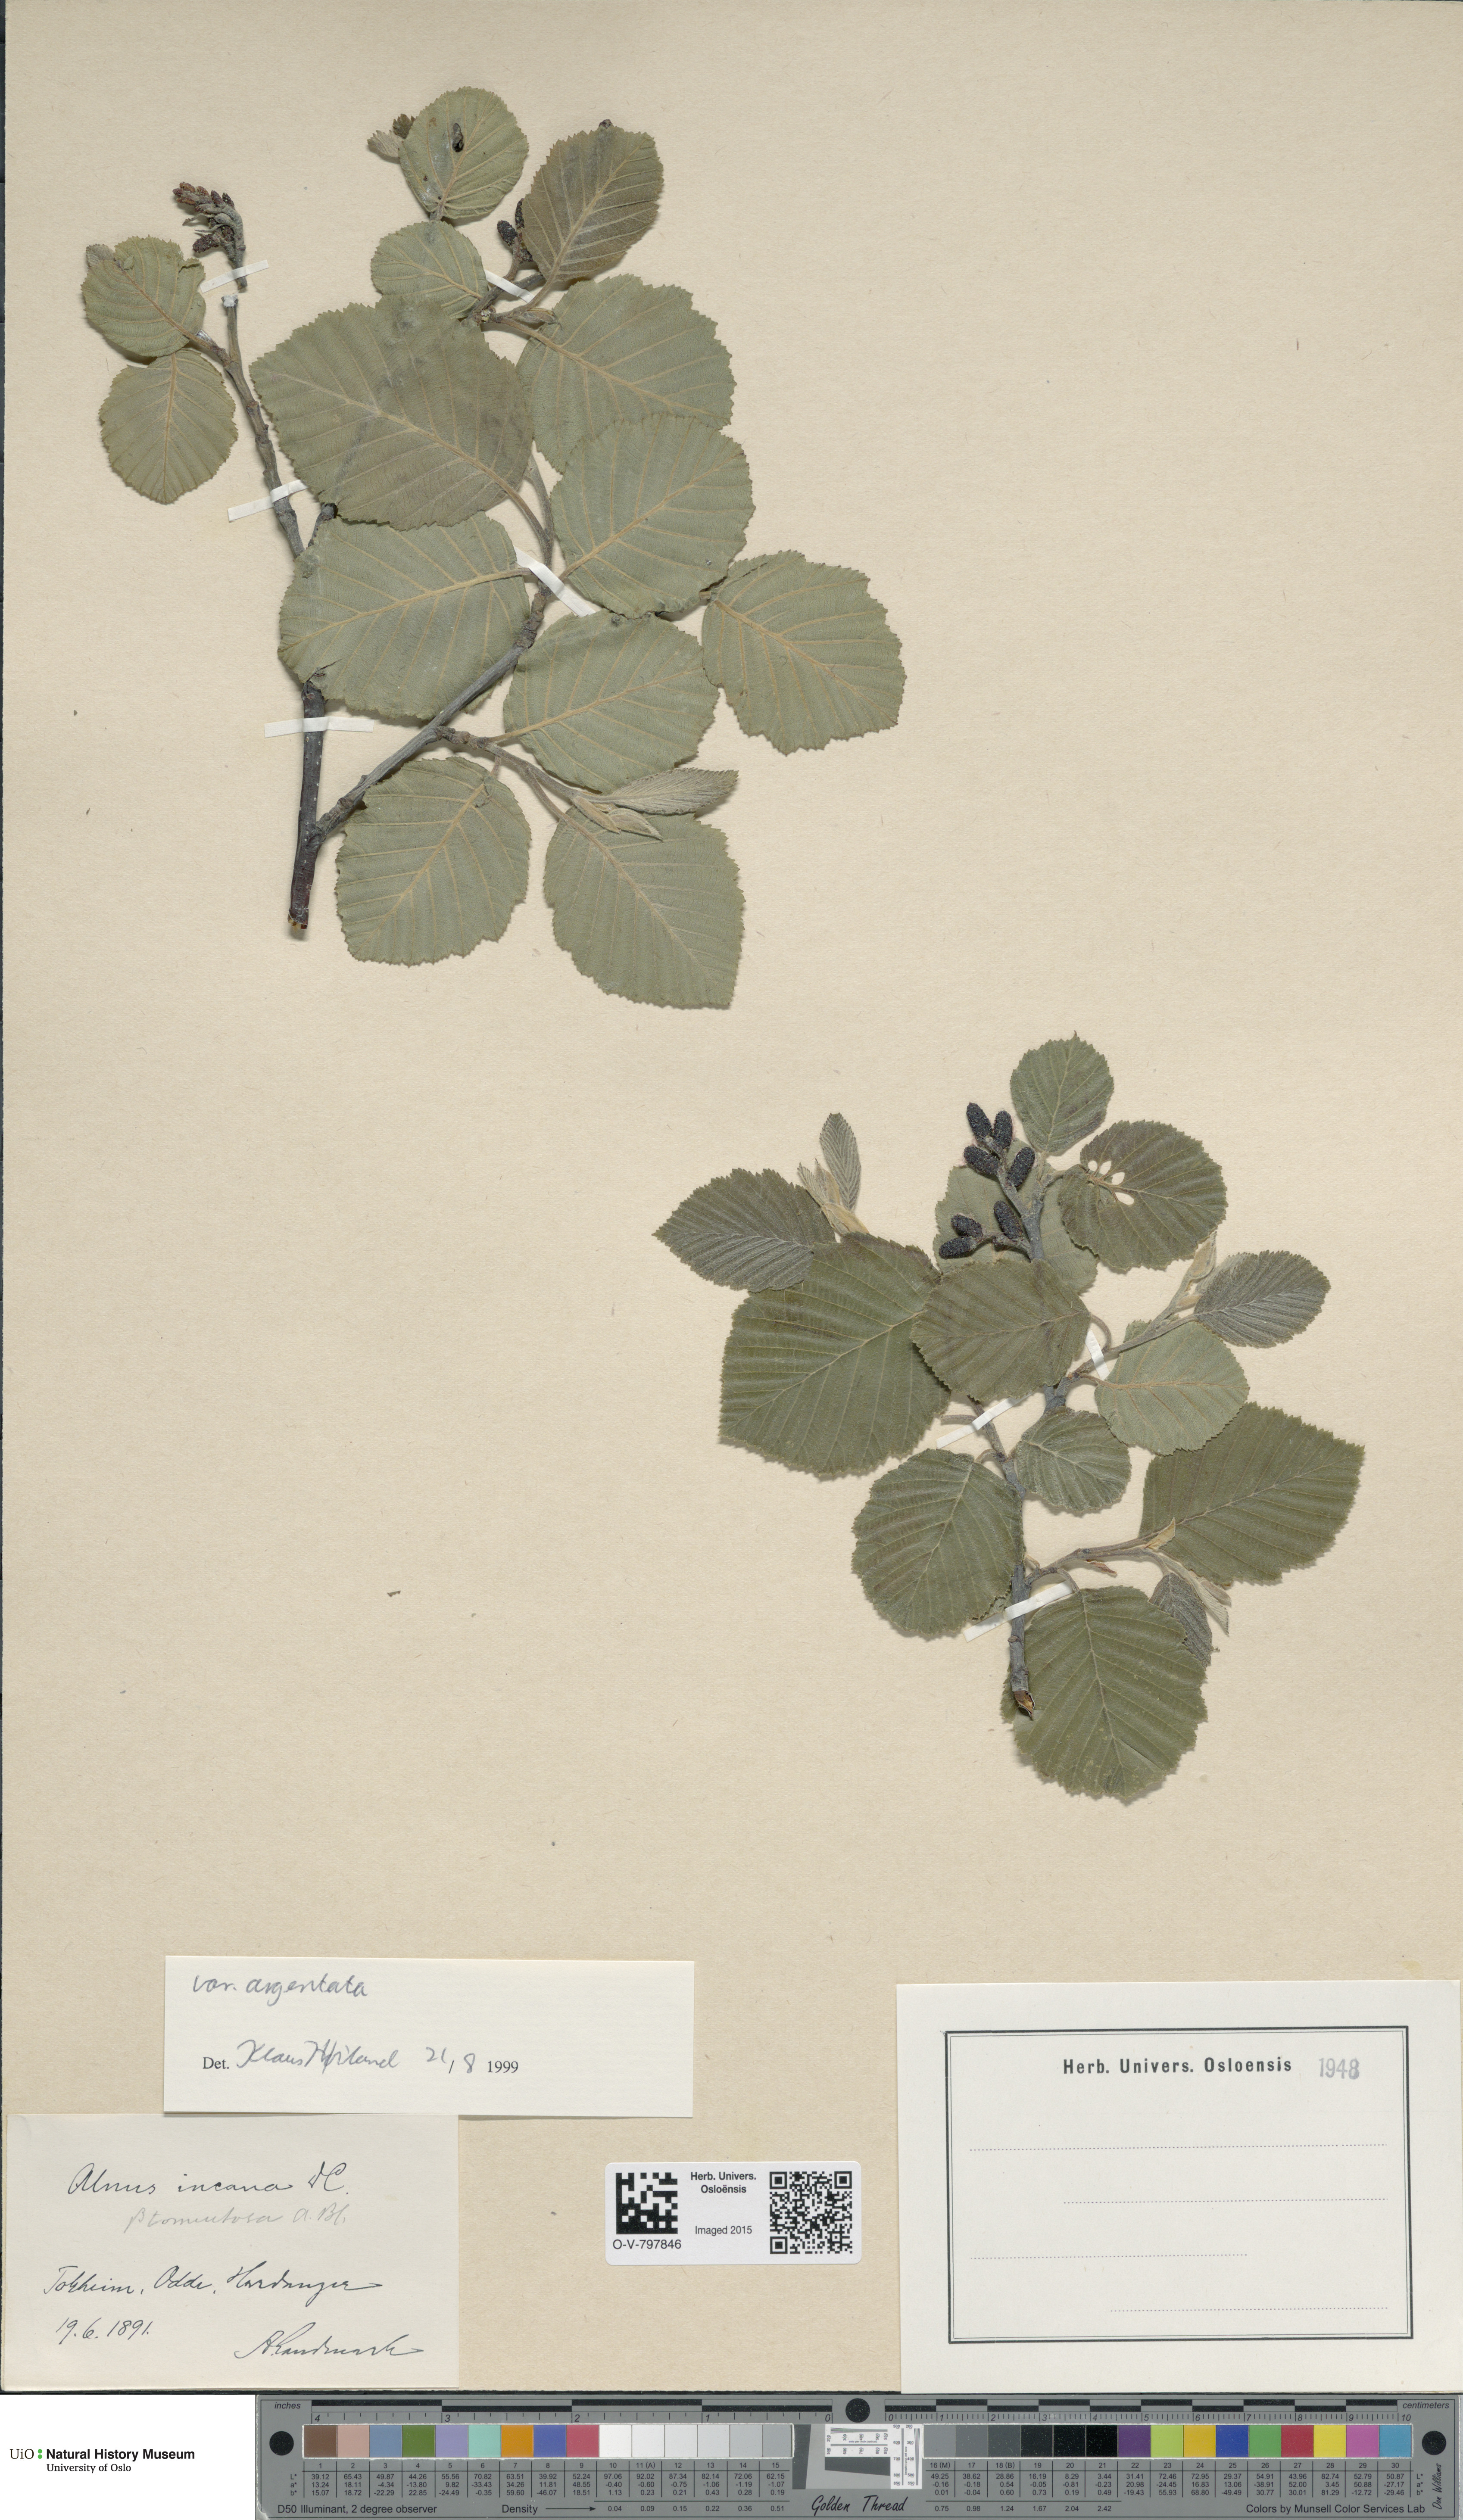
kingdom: Plantae
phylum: Tracheophyta
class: Magnoliopsida
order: Fagales
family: Betulaceae
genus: Alnus
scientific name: Alnus incana
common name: Grey alder
